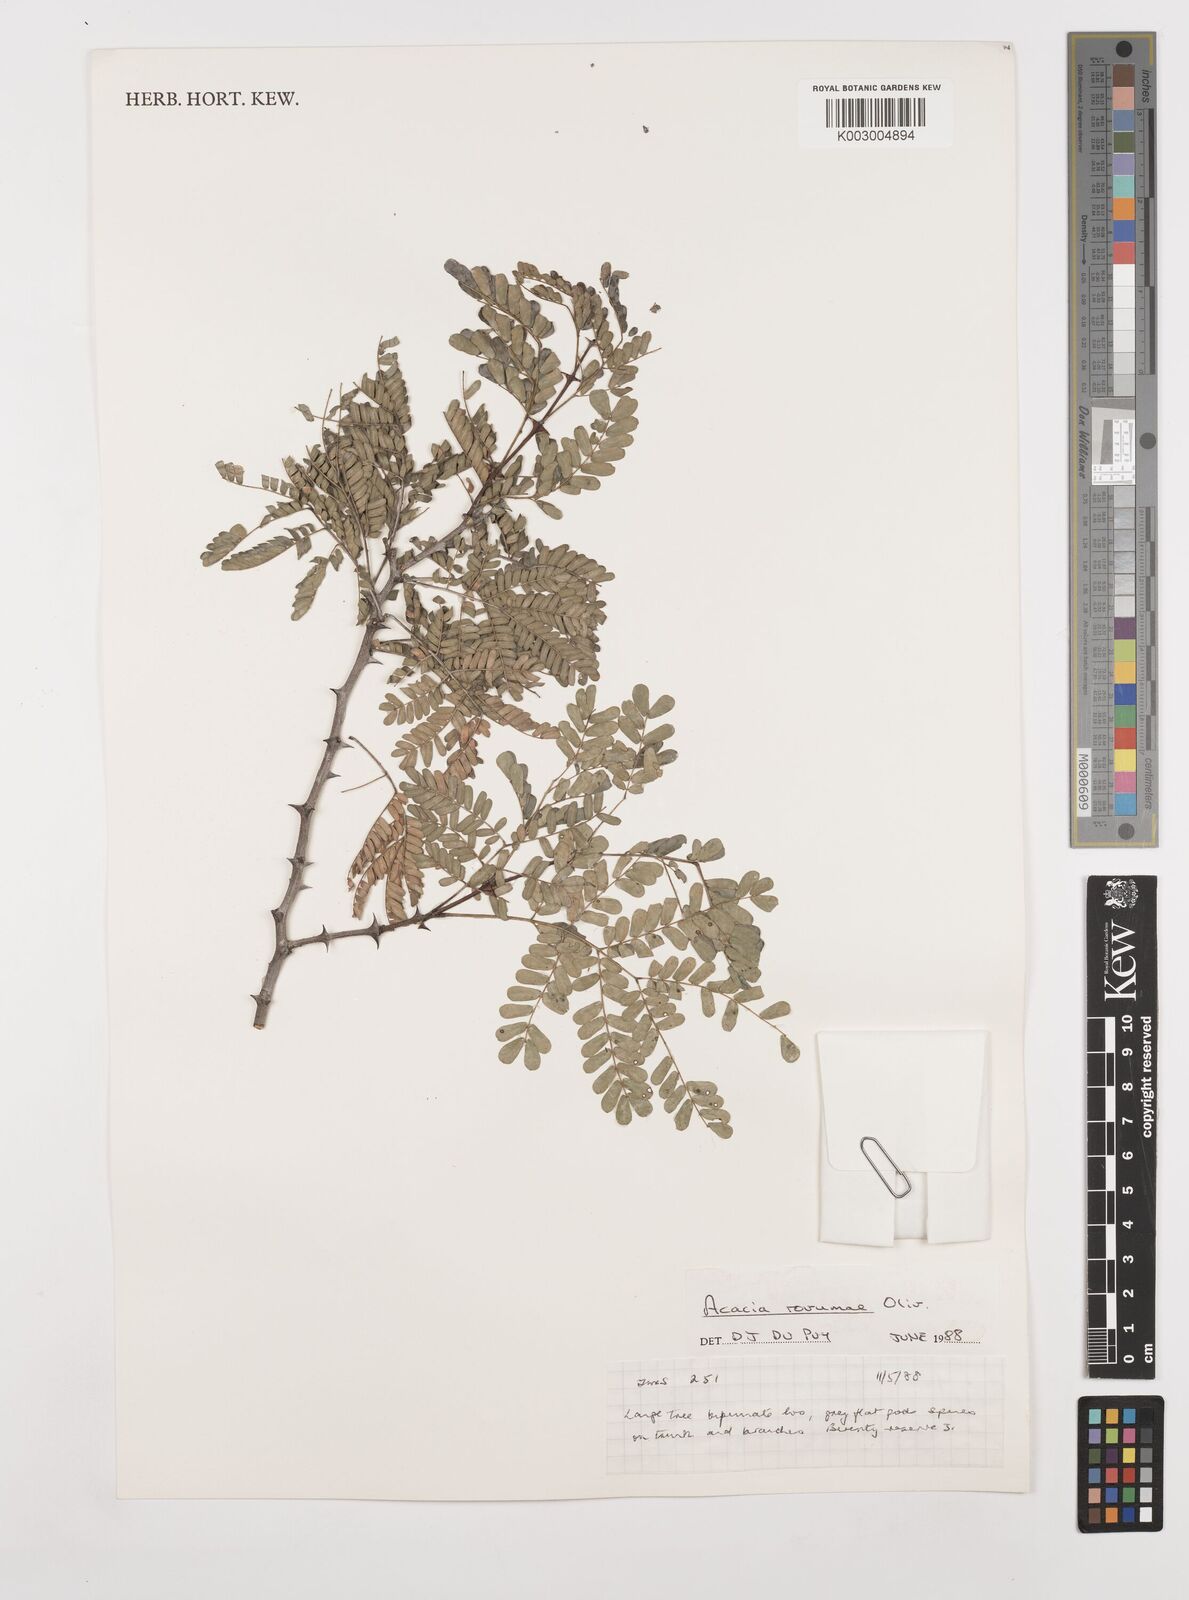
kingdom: Plantae
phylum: Tracheophyta
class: Magnoliopsida
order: Fabales
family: Fabaceae
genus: Senegalia
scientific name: Senegalia rovumae
